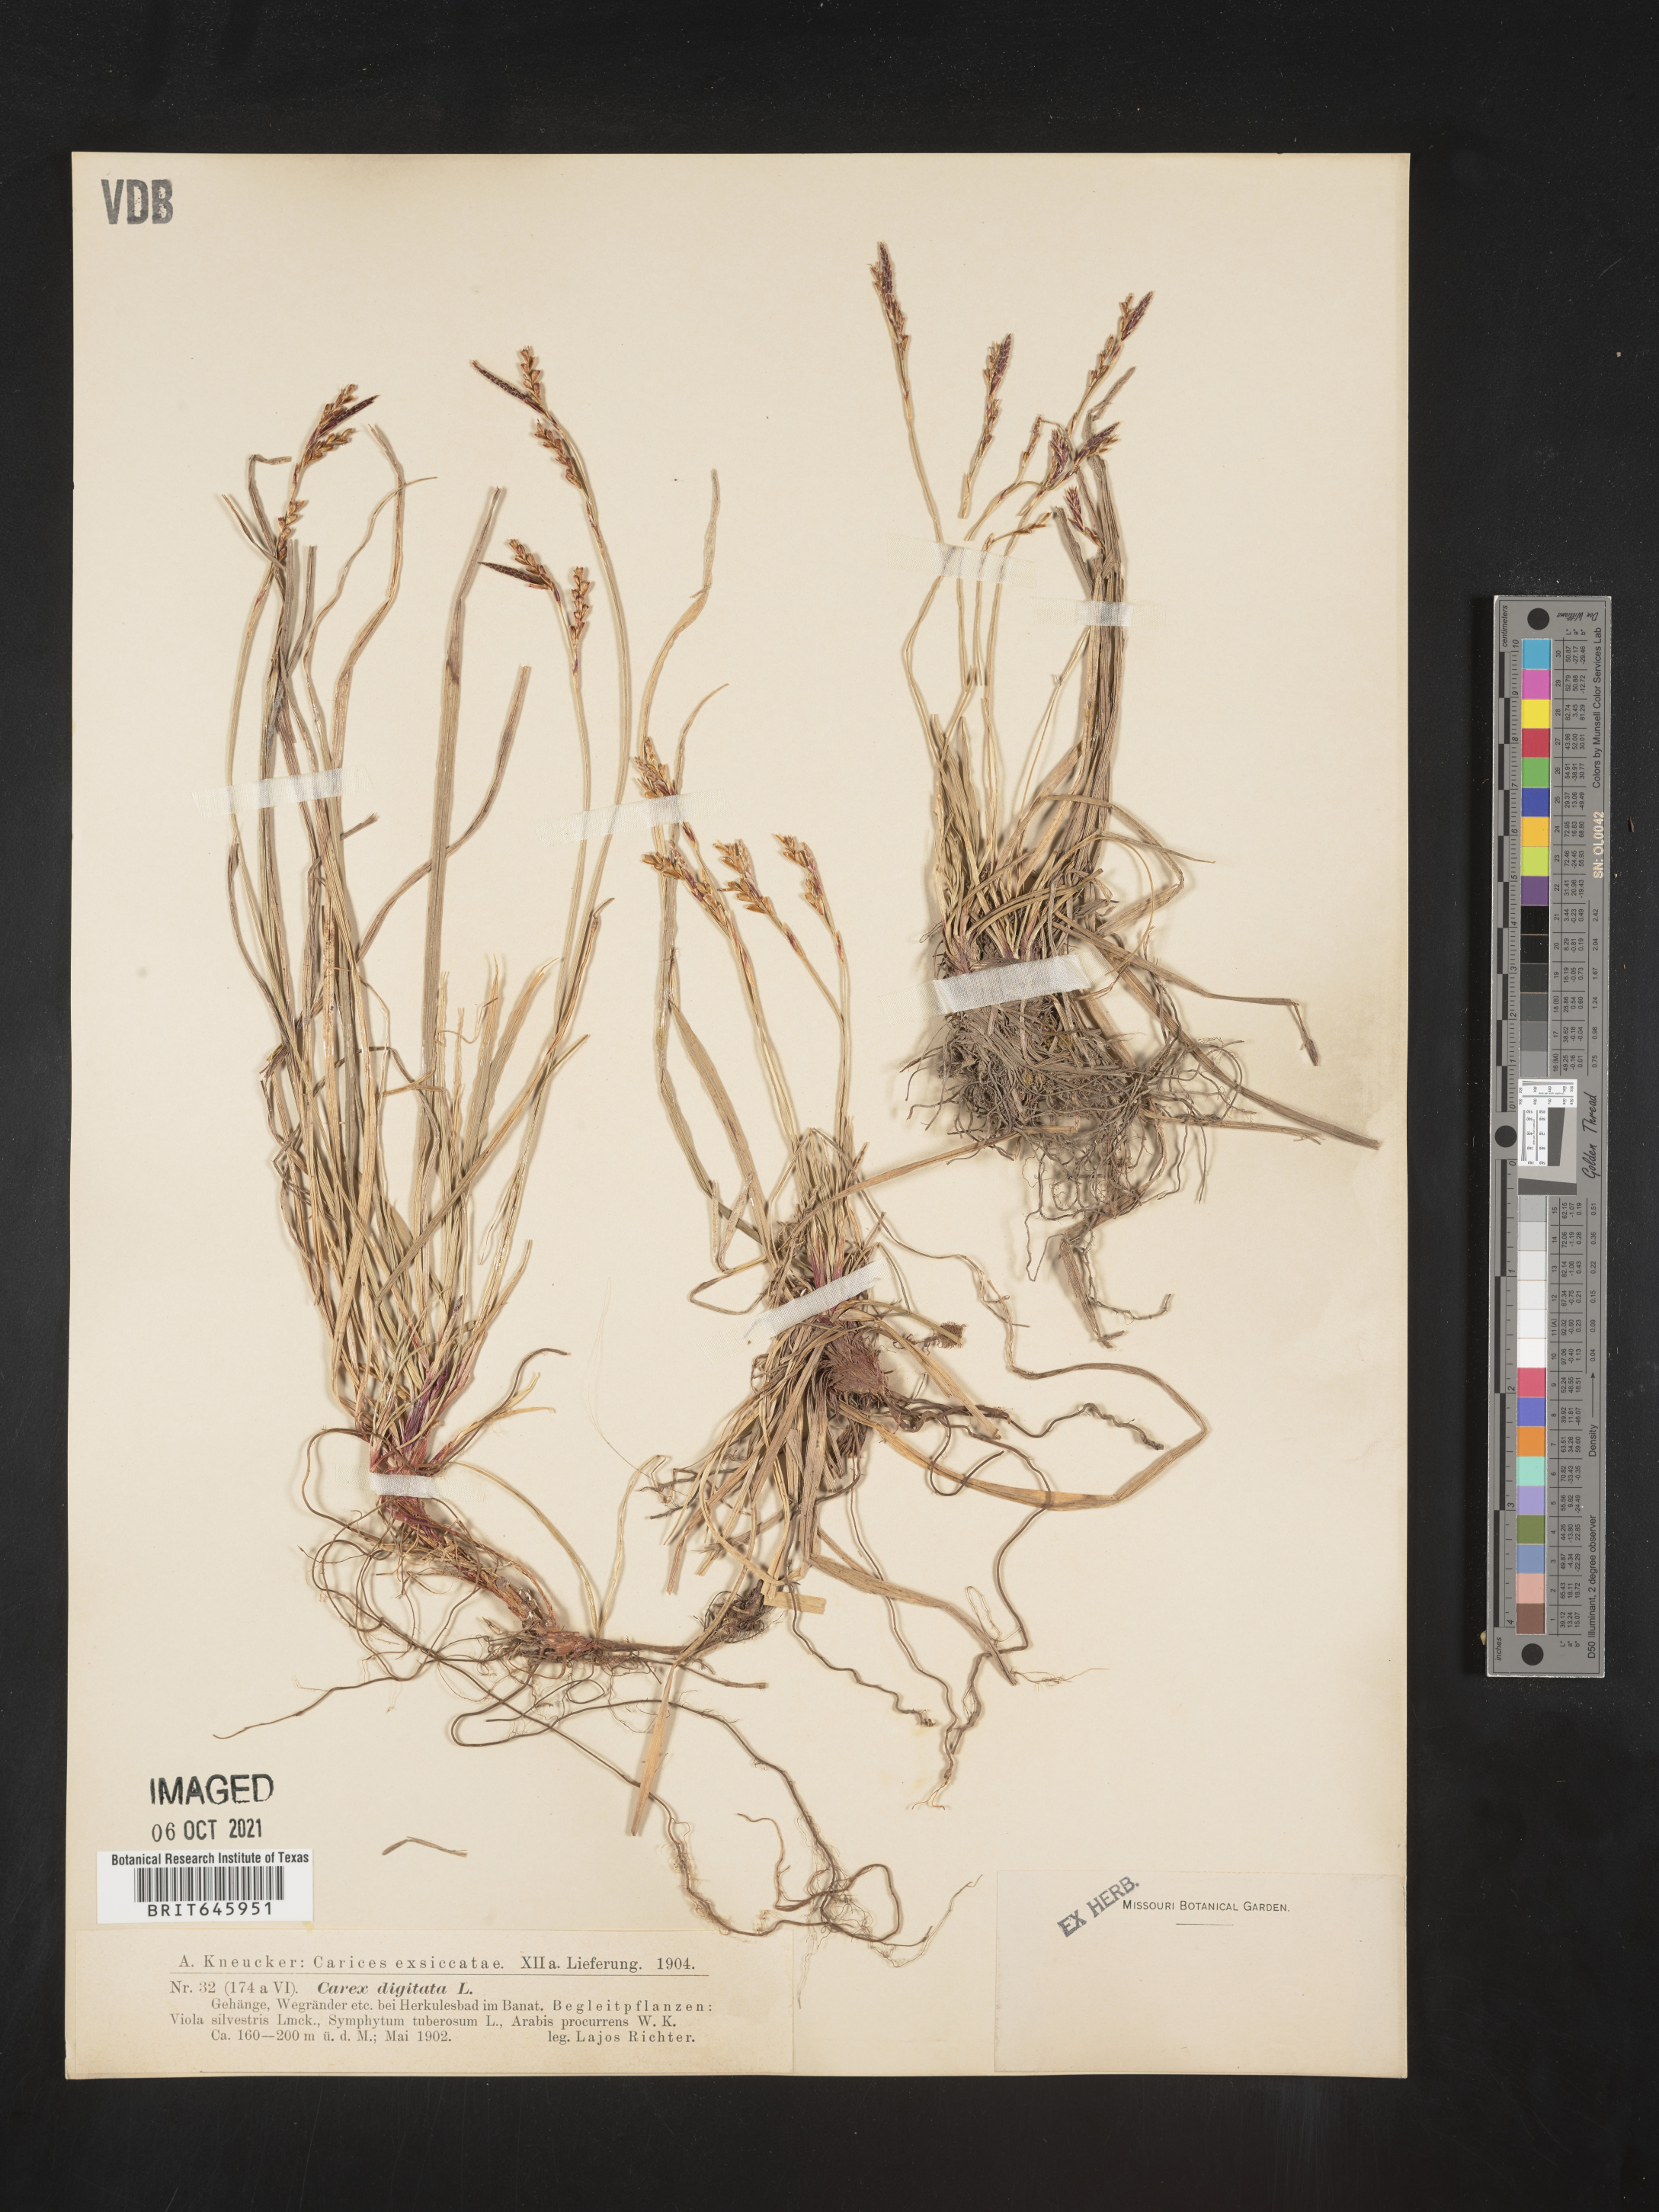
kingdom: Plantae
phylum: Tracheophyta
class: Liliopsida
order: Poales
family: Cyperaceae
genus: Carex
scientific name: Carex digitata
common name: Fingered sedge
